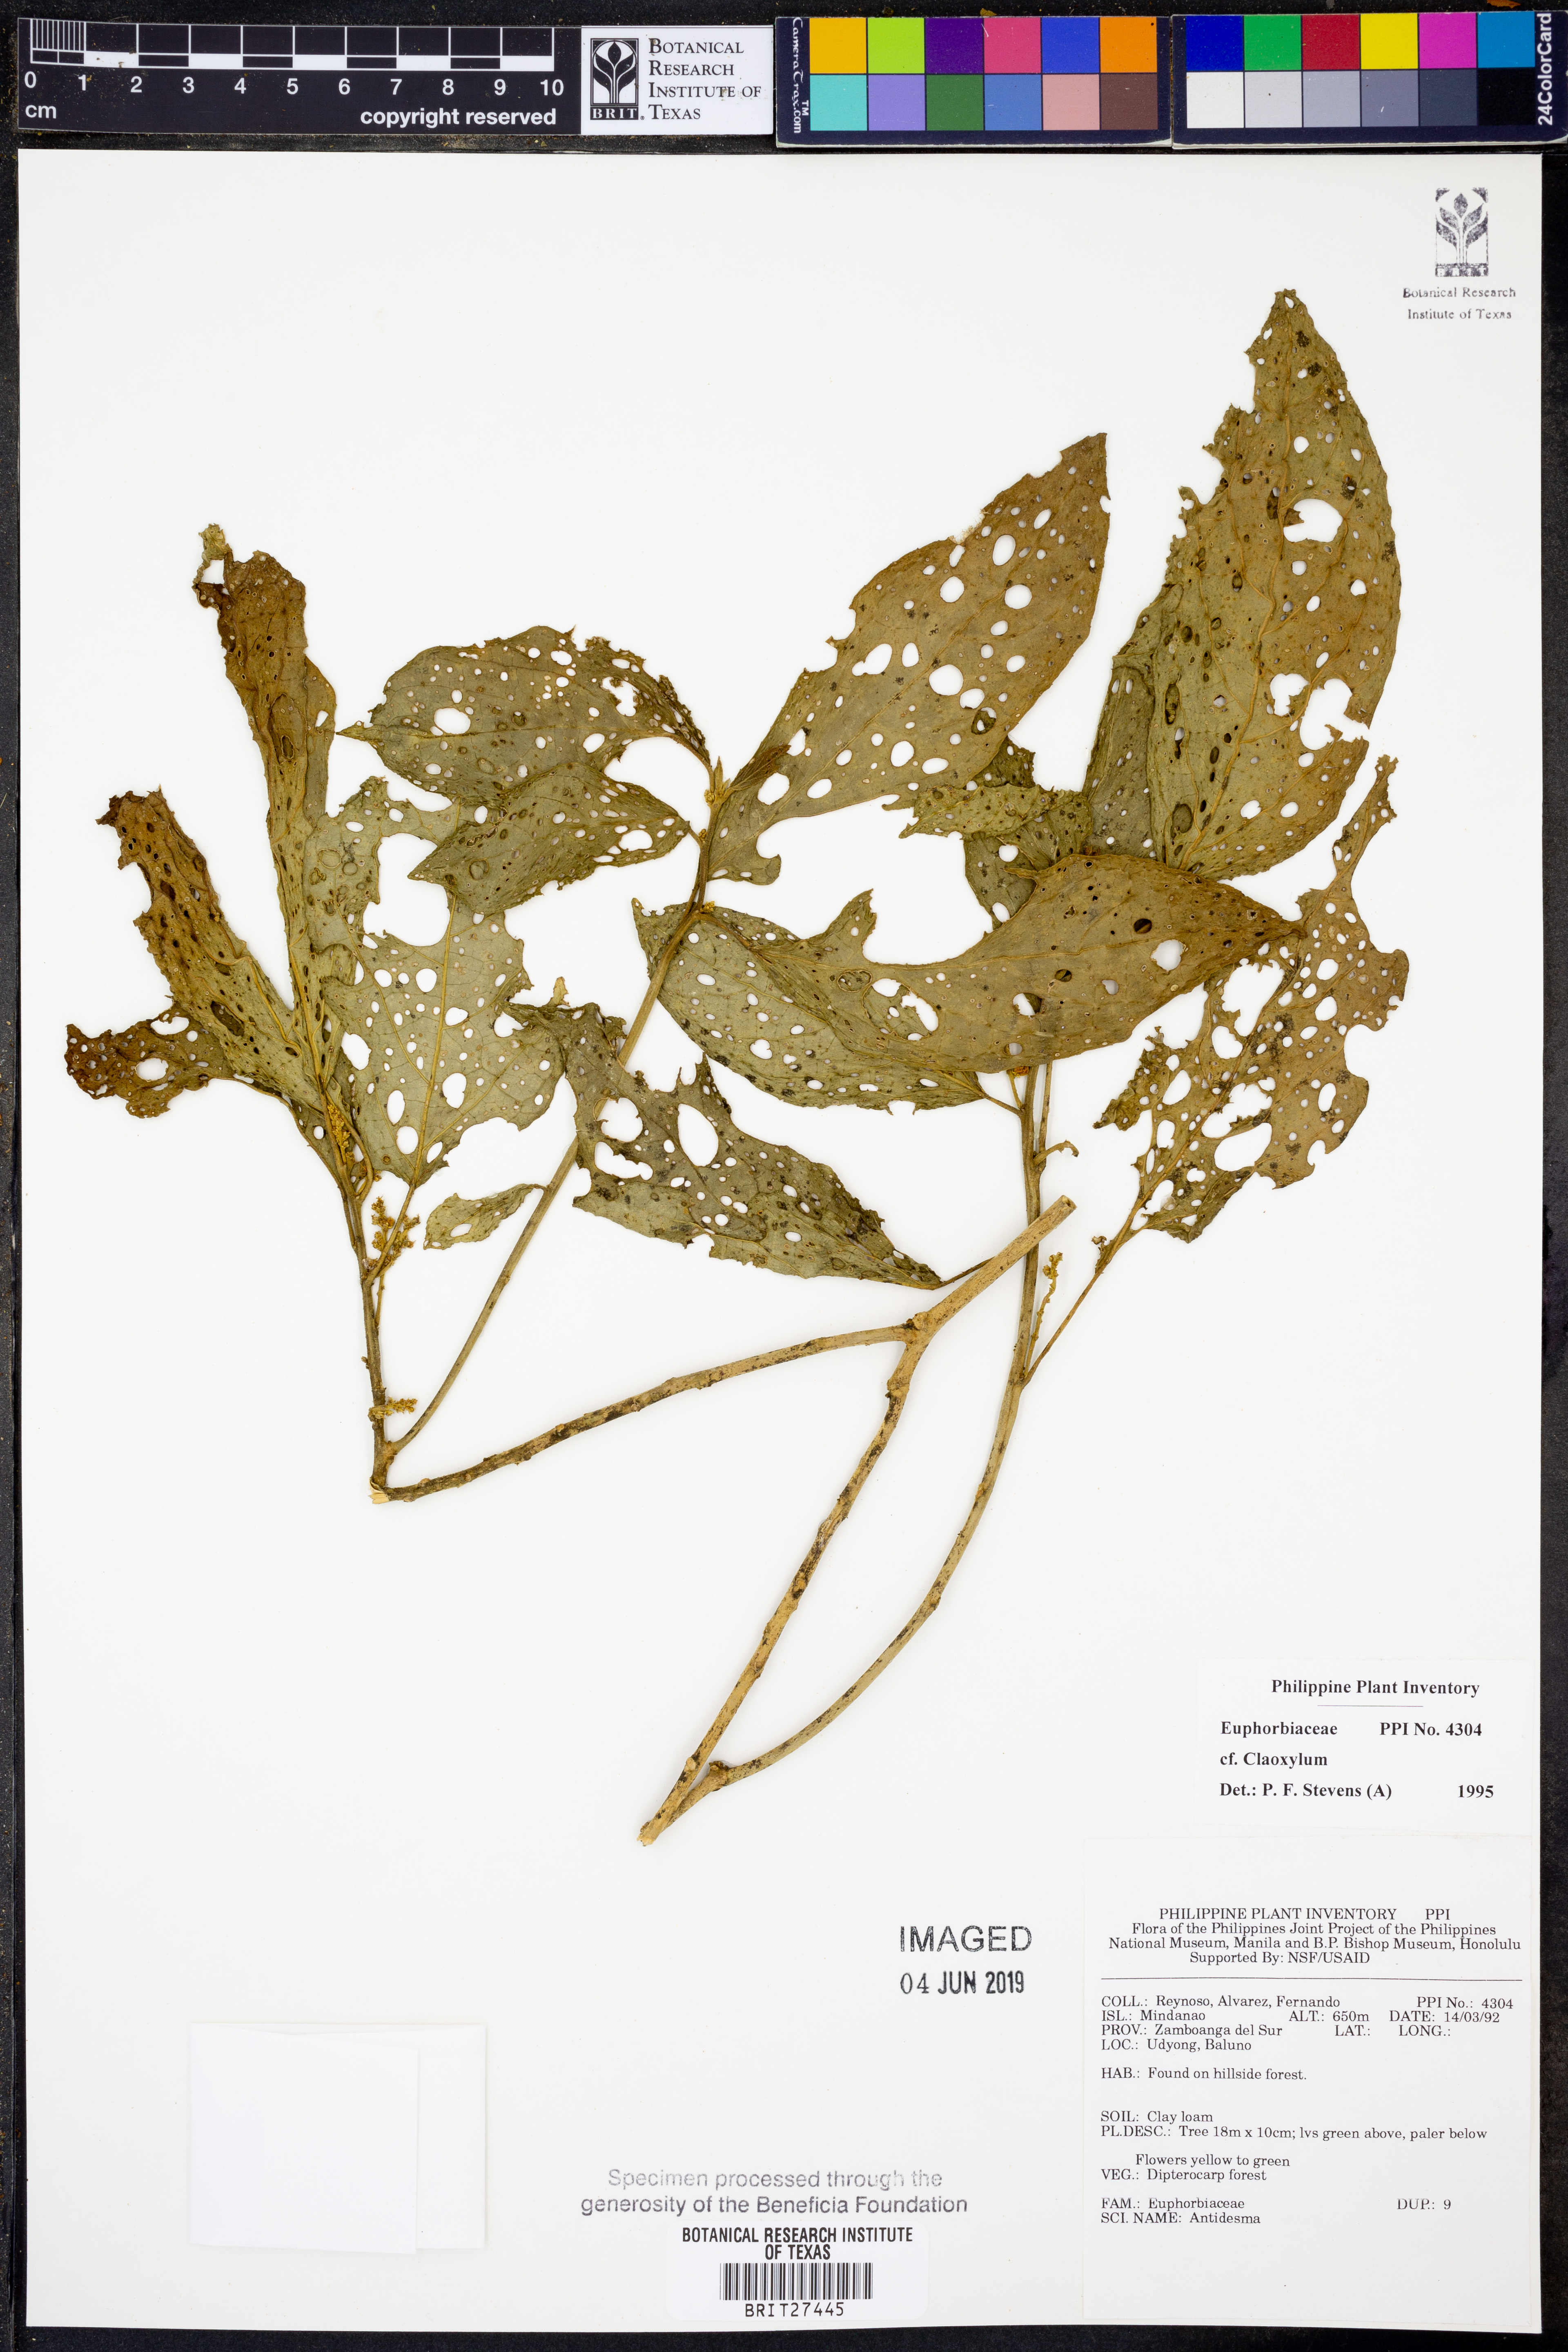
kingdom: Plantae
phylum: Tracheophyta
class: Magnoliopsida
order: Malpighiales
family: Euphorbiaceae
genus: Claoxylon
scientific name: Claoxylon
